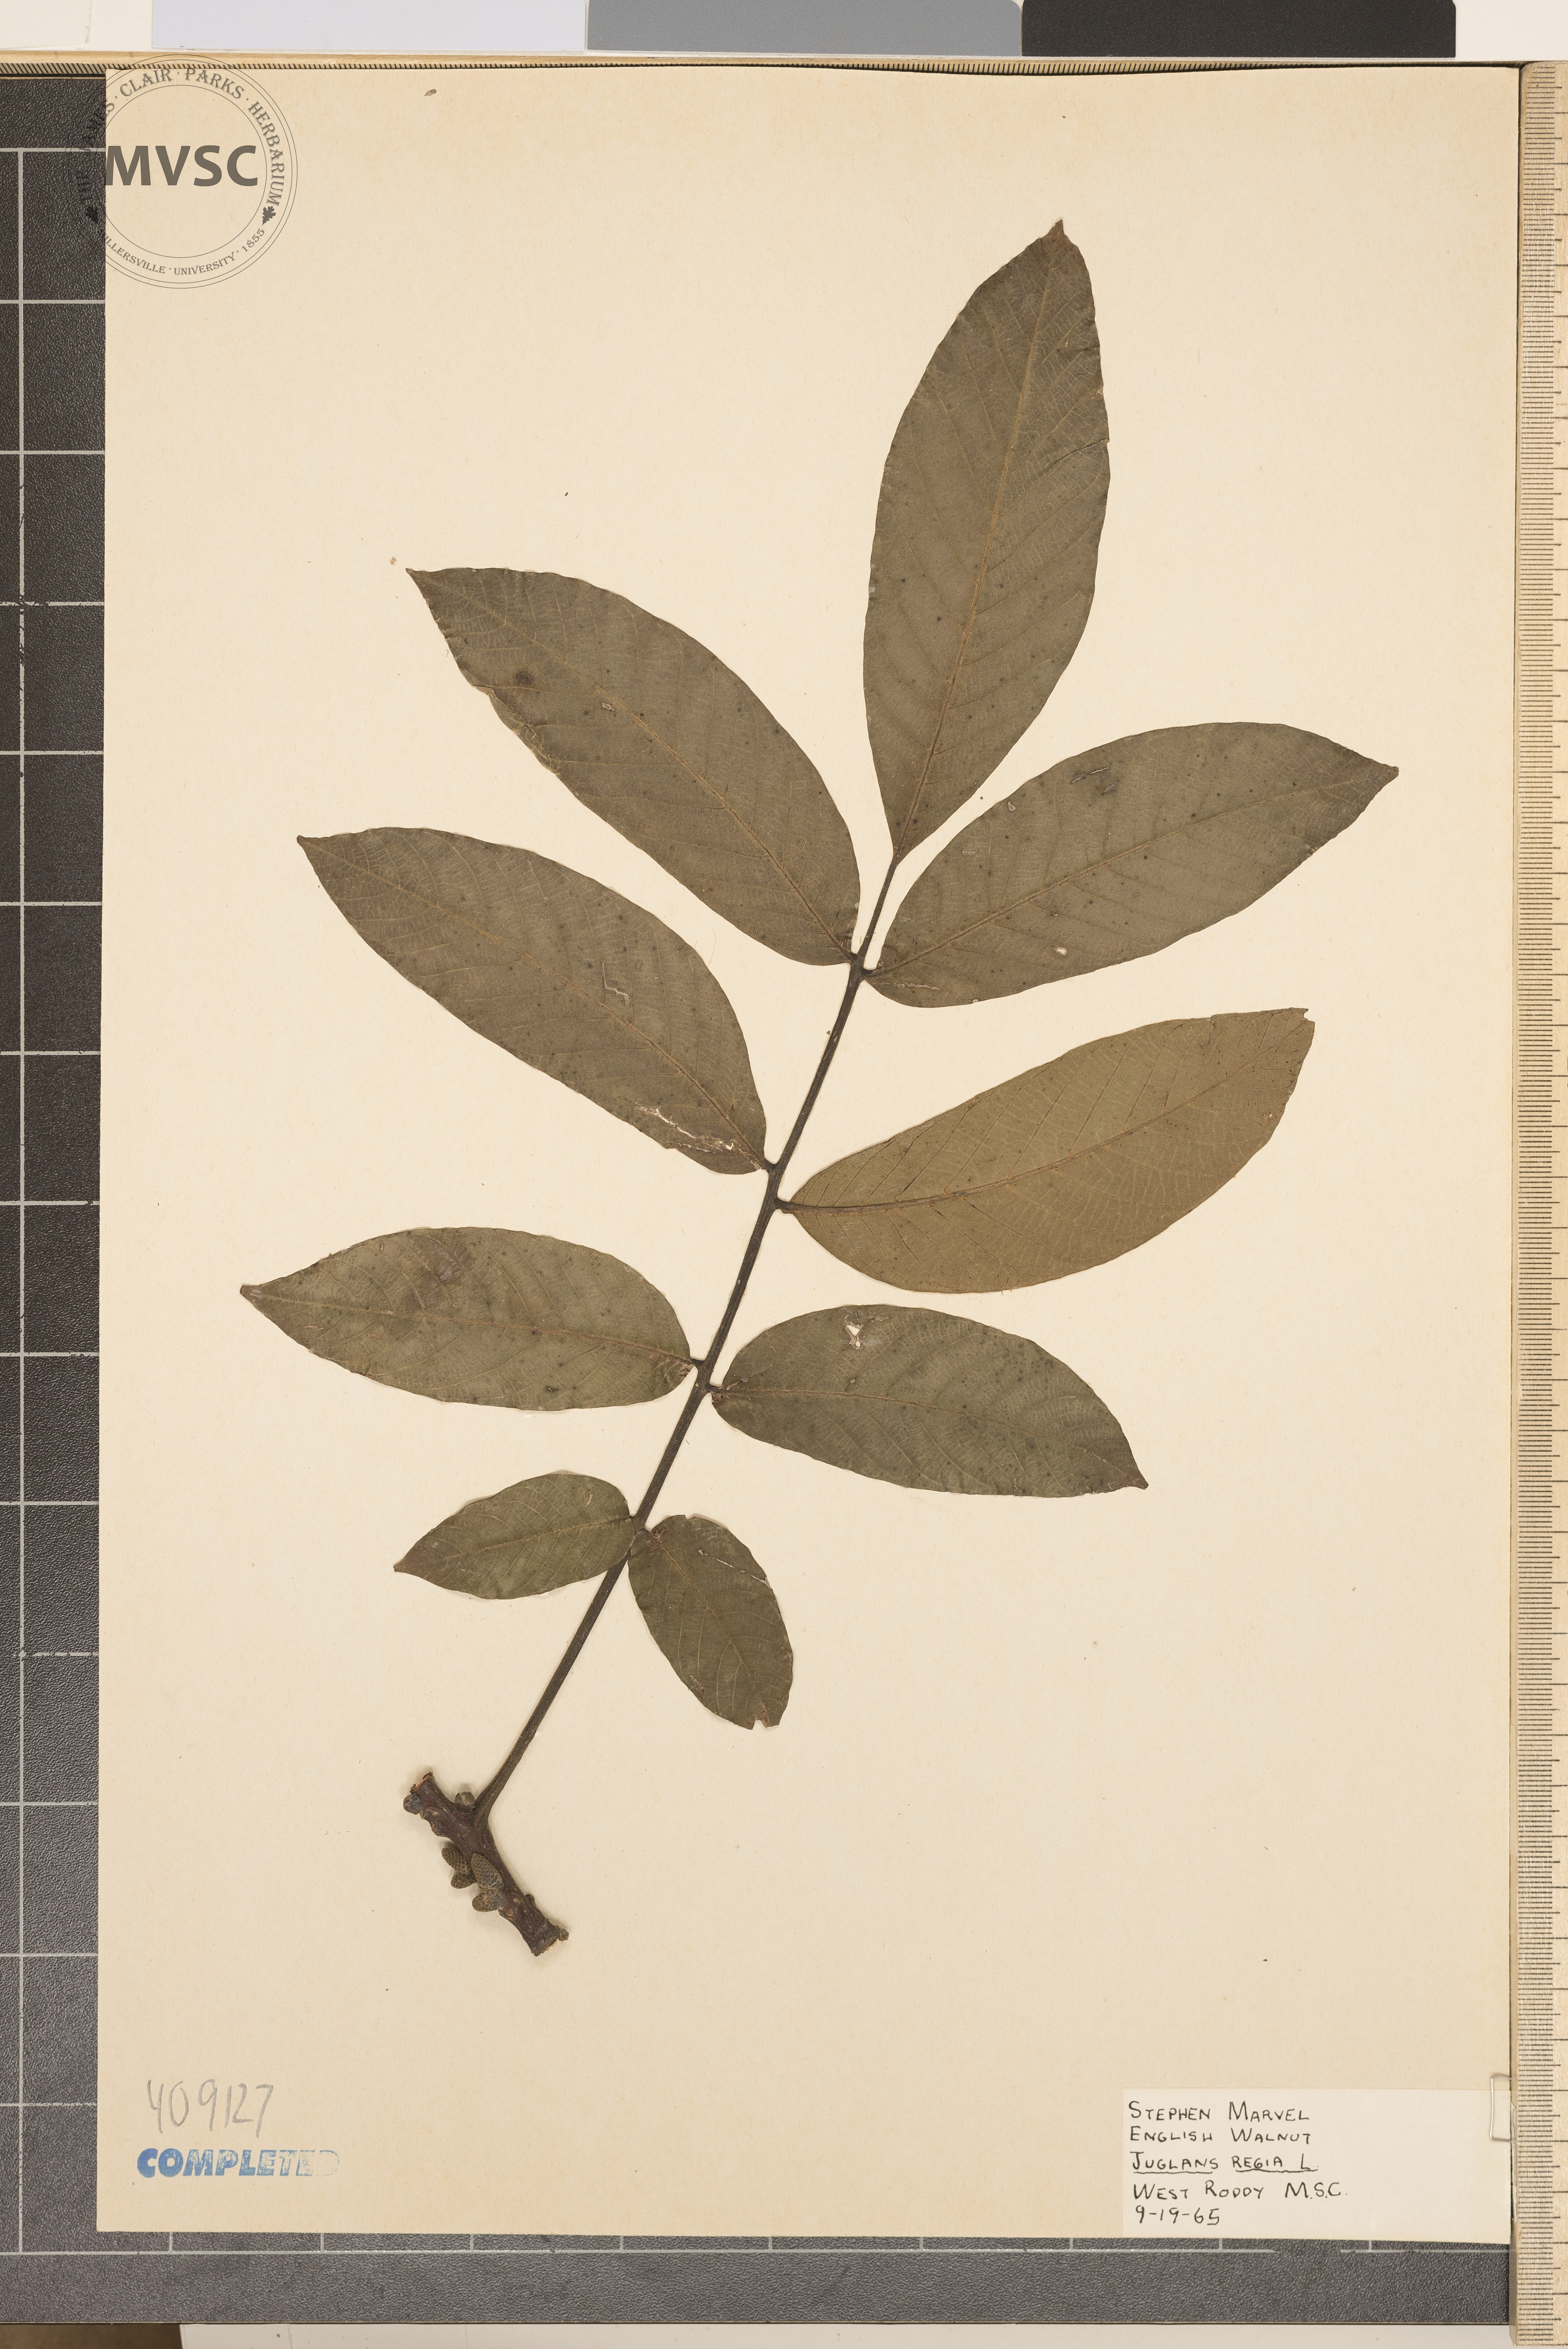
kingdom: Plantae
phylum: Tracheophyta
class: Magnoliopsida
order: Fagales
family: Juglandaceae
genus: Juglans
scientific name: Juglans regia
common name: Walnut
